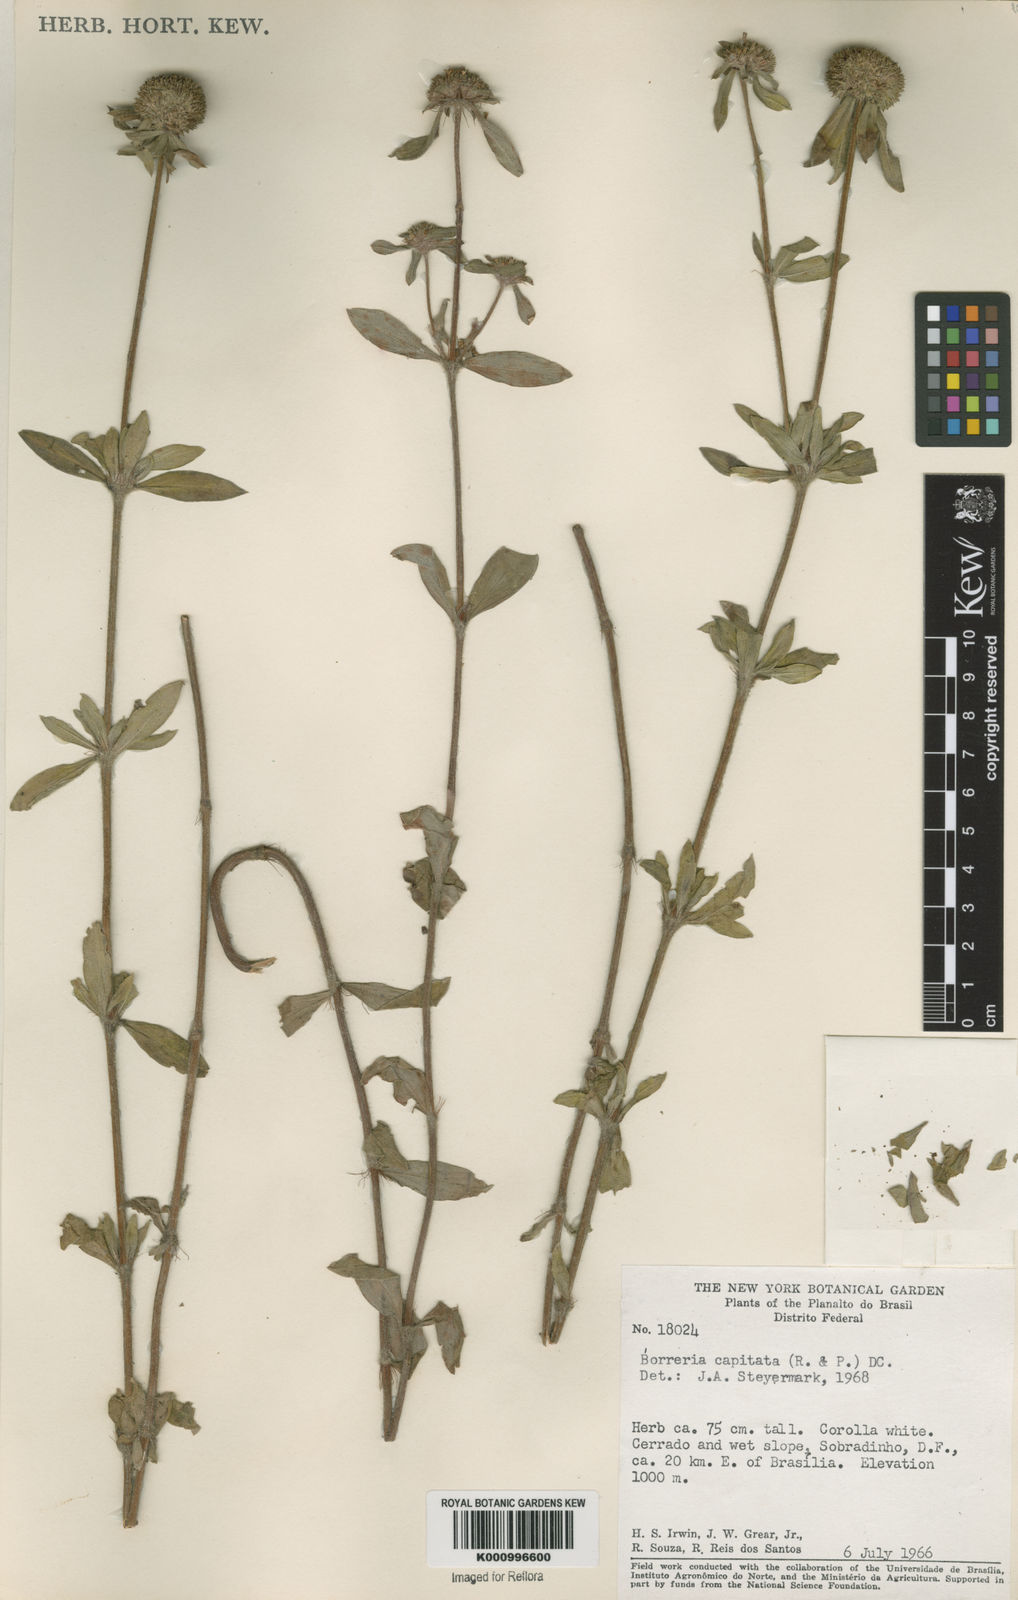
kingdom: Plantae
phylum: Tracheophyta
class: Magnoliopsida
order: Gentianales
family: Rubiaceae
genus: Spermacoce
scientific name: Spermacoce capitata
